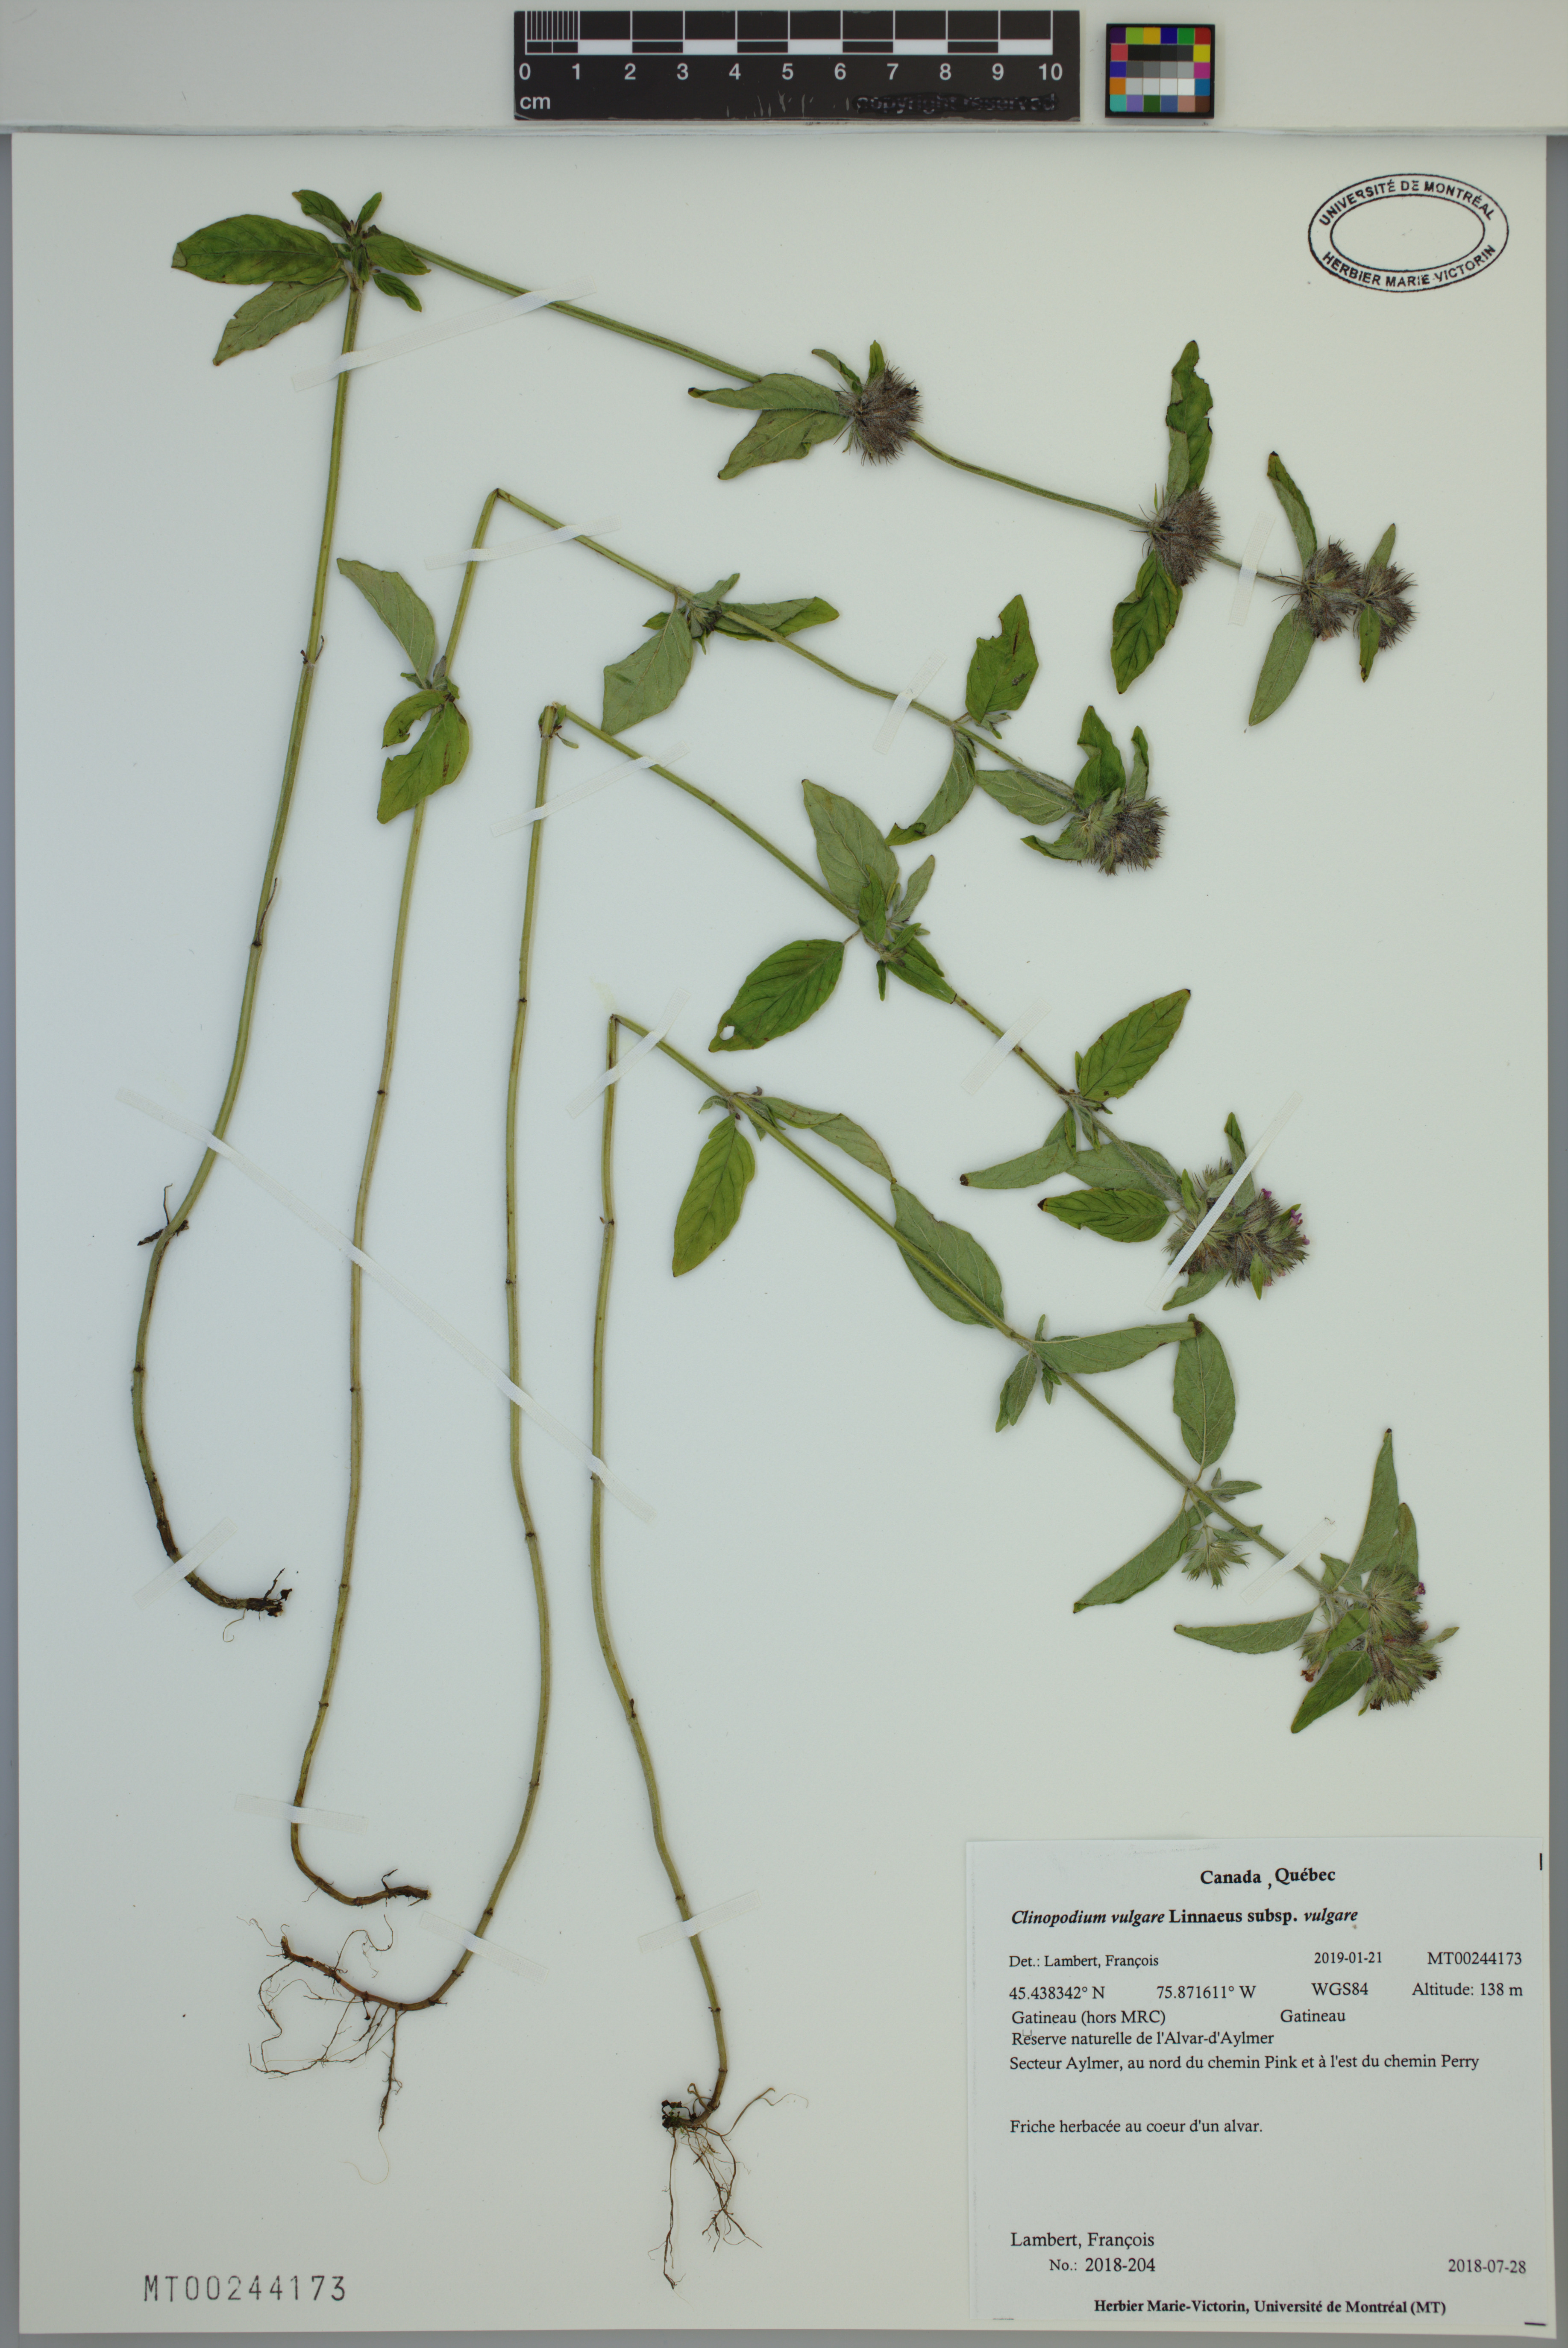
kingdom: Plantae
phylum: Tracheophyta
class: Magnoliopsida
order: Lamiales
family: Lamiaceae
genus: Clinopodium
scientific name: Clinopodium vulgare
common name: Wild basil
